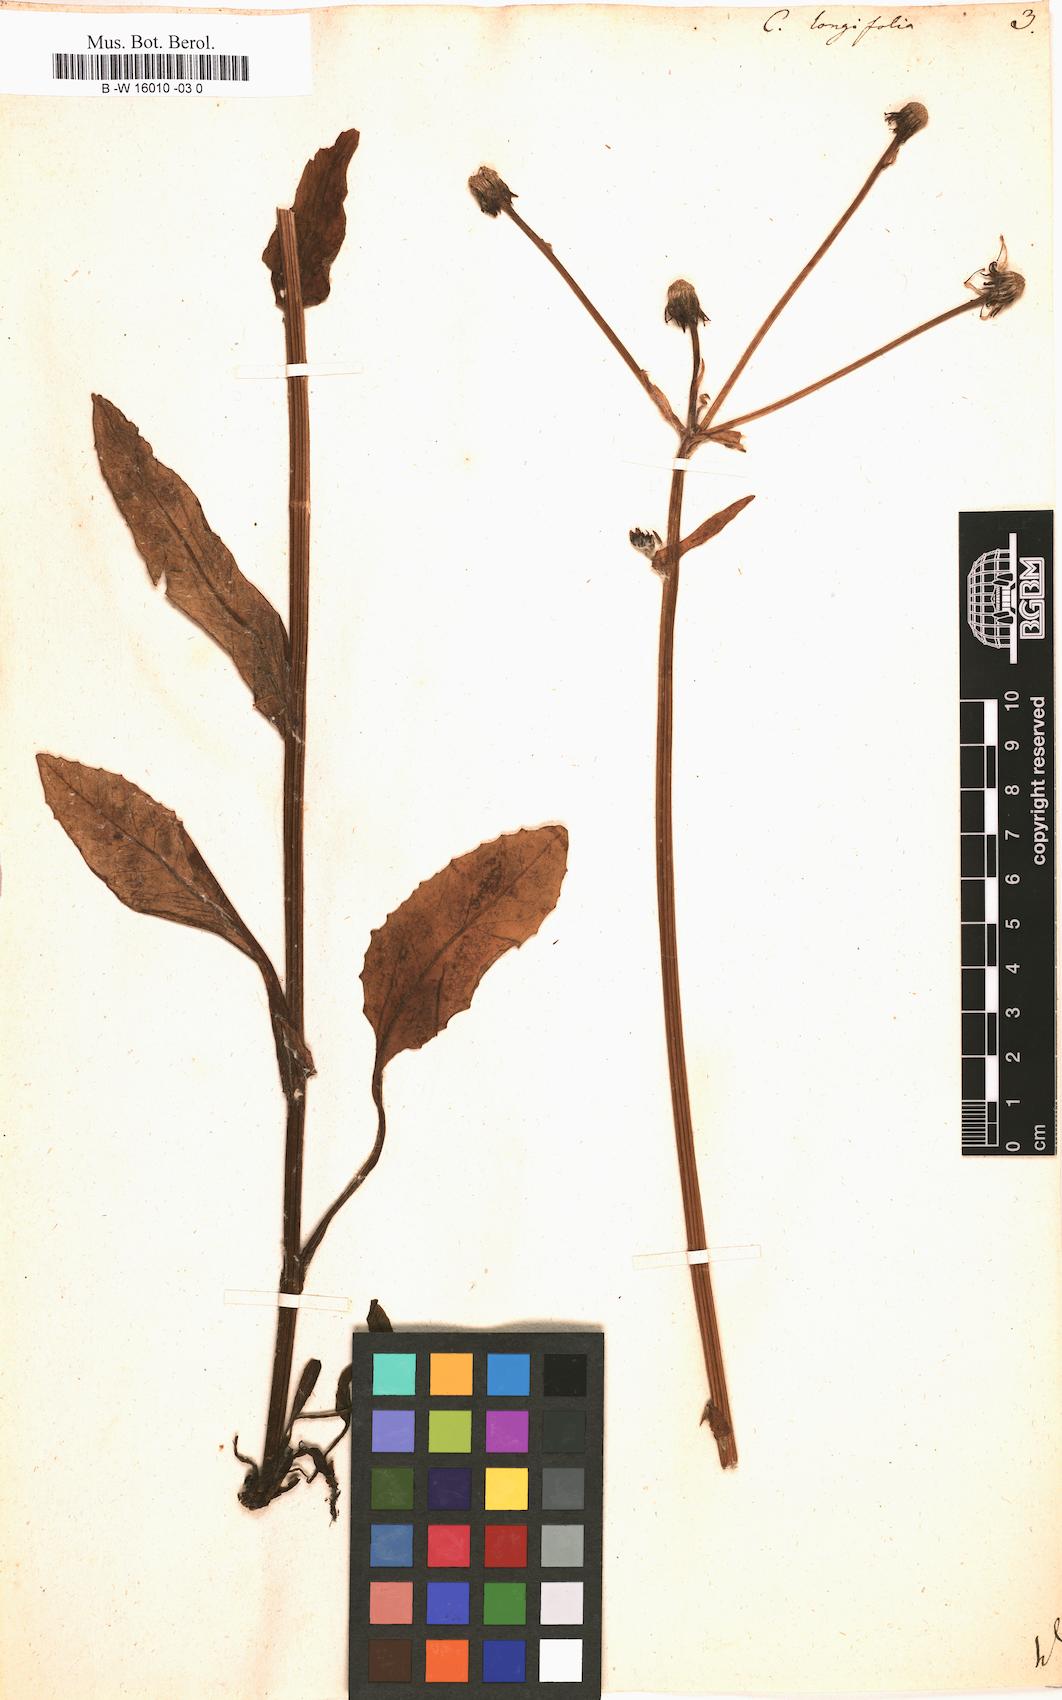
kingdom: Plantae
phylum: Tracheophyta
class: Magnoliopsida
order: Asterales
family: Asteraceae
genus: Tephroseris
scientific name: Tephroseris
